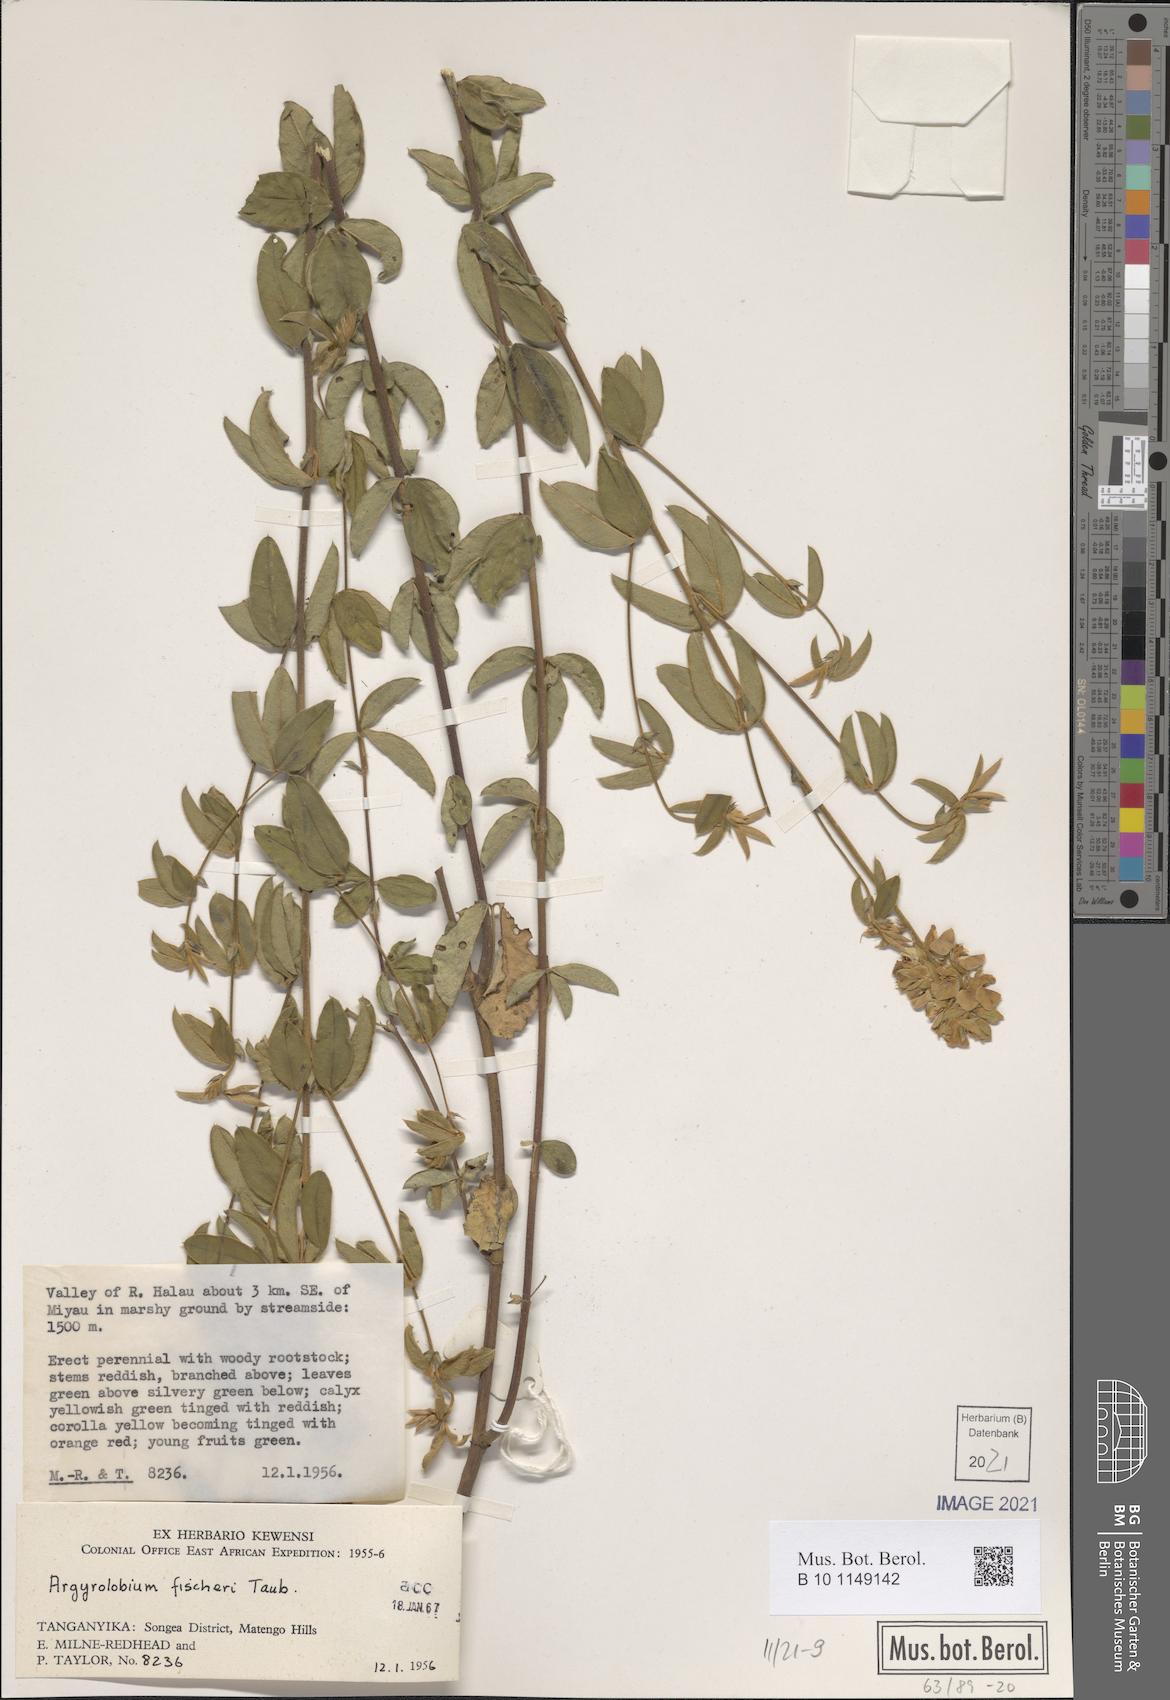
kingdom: Plantae
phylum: Tracheophyta
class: Magnoliopsida
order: Fabales
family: Fabaceae
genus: Argyrolobium
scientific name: Argyrolobium fischeri
